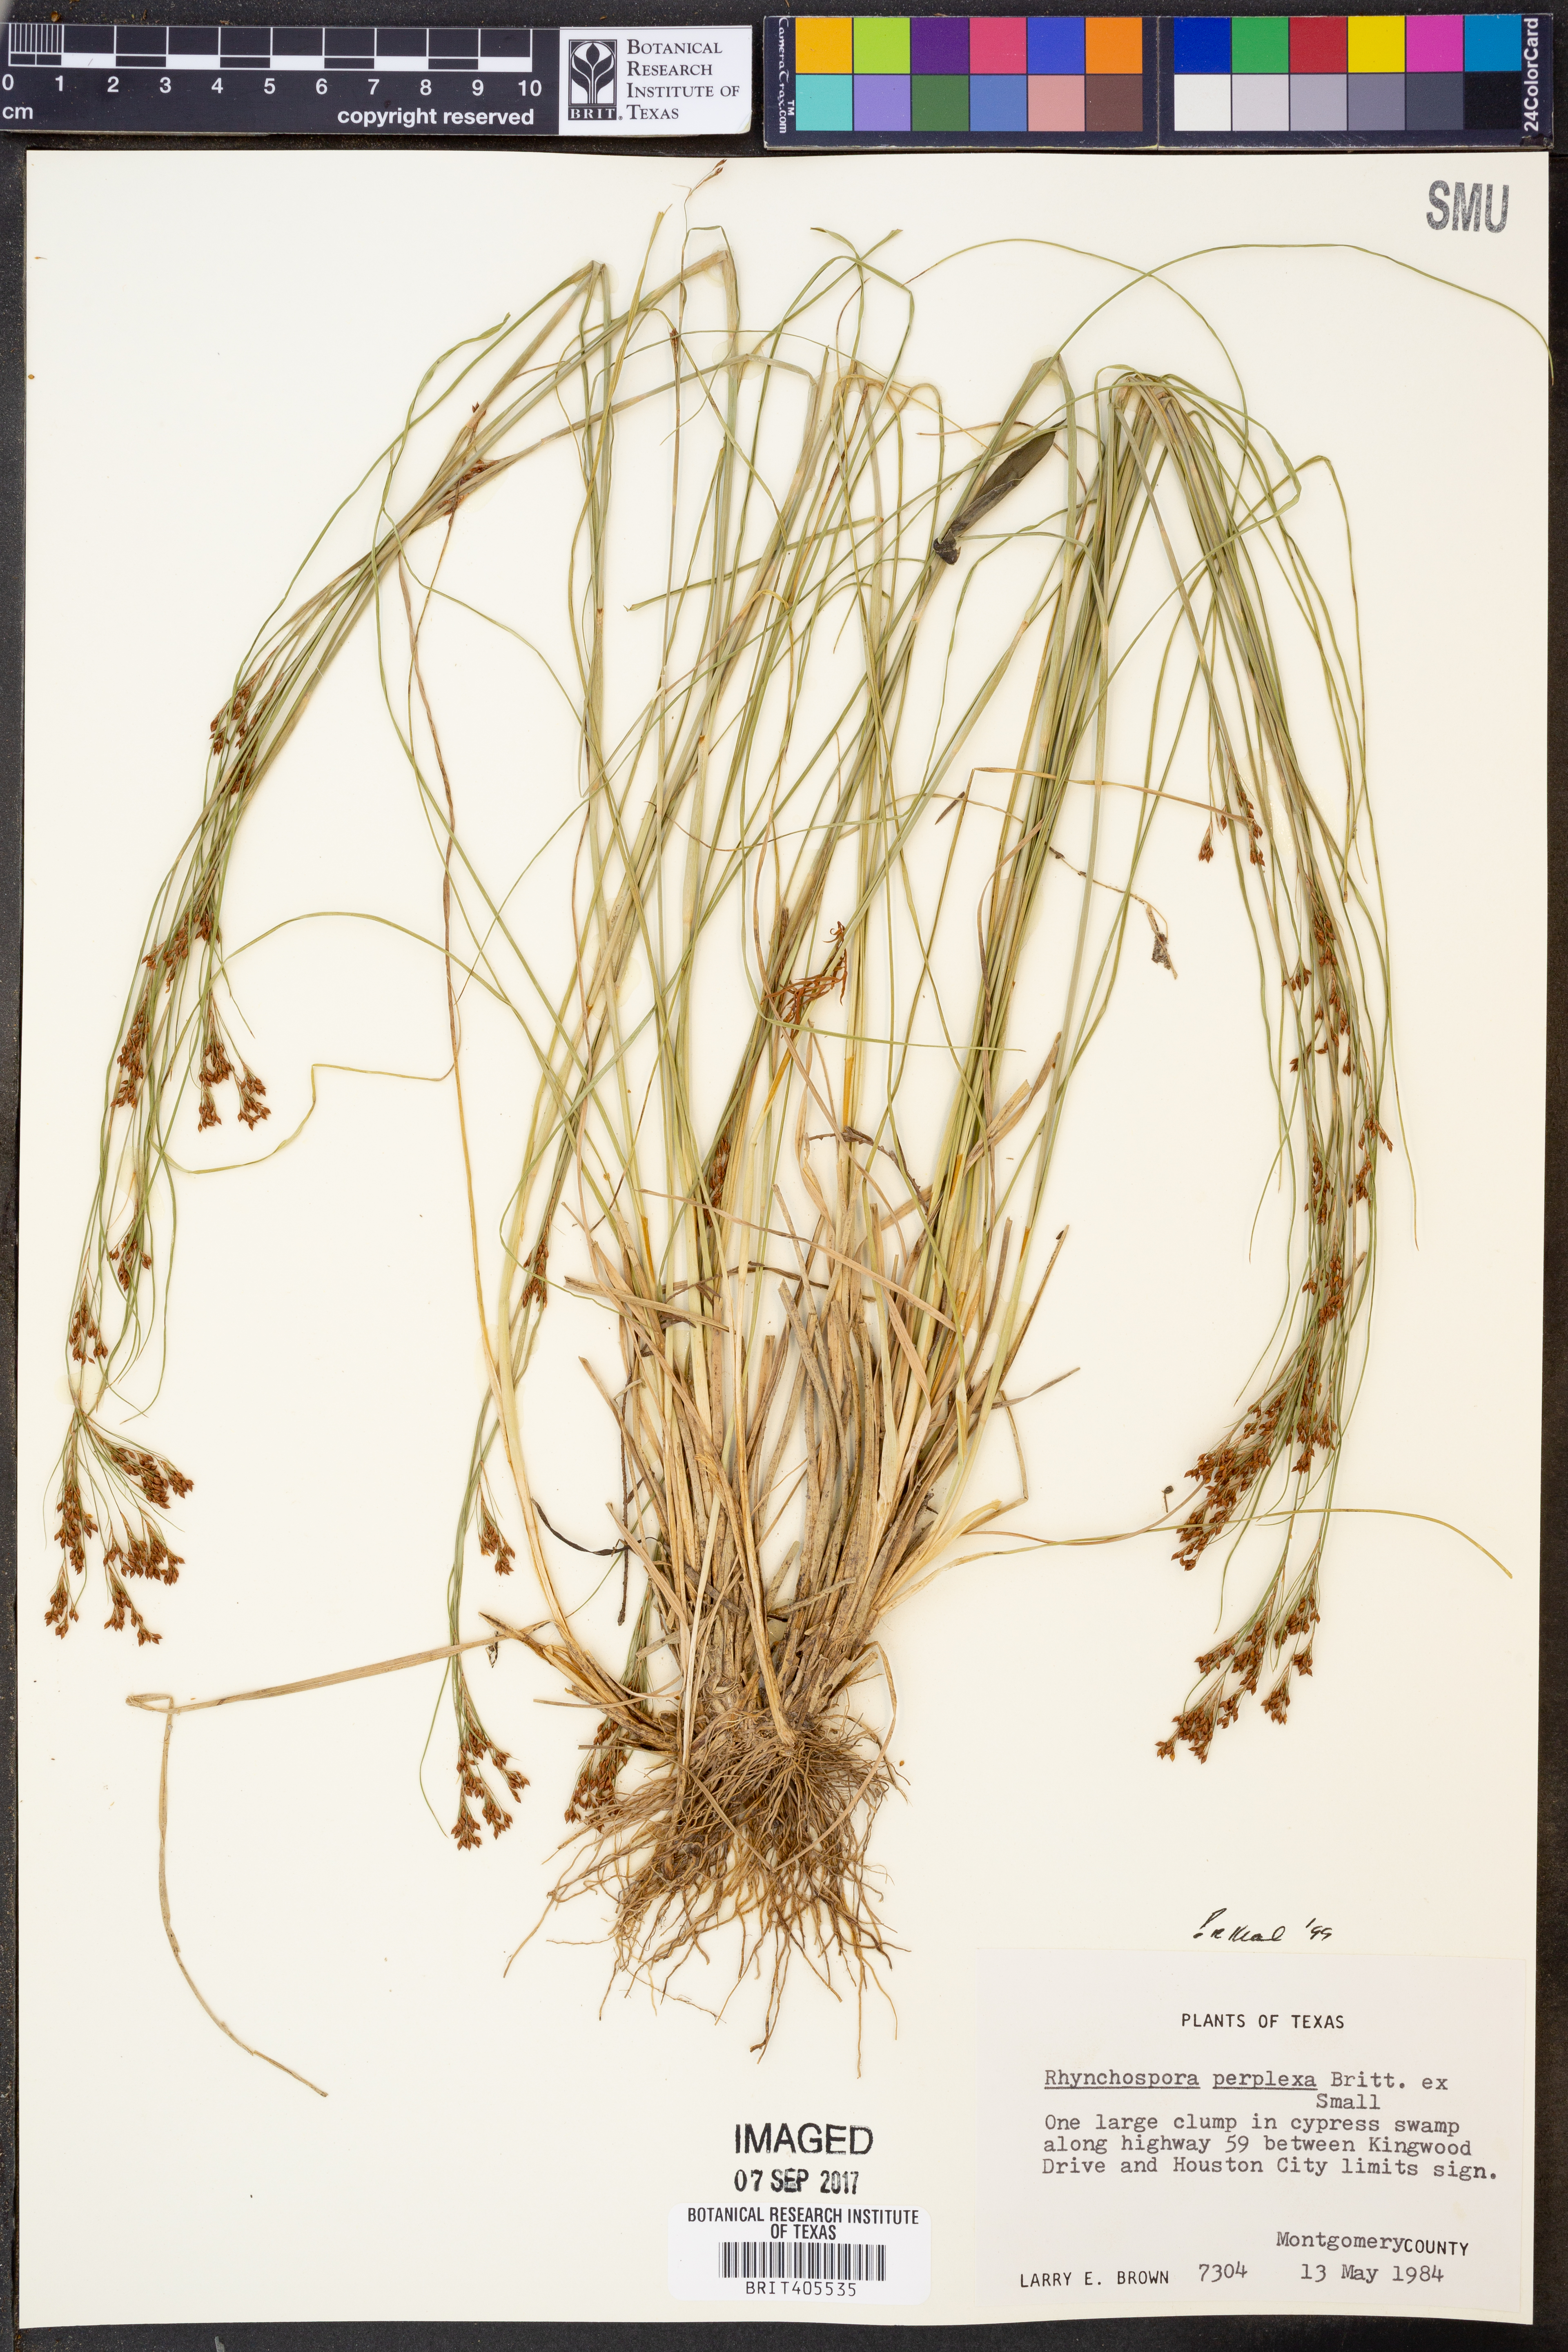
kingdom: Plantae
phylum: Tracheophyta
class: Liliopsida
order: Poales
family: Cyperaceae
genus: Rhynchospora
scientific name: Rhynchospora perplexa
